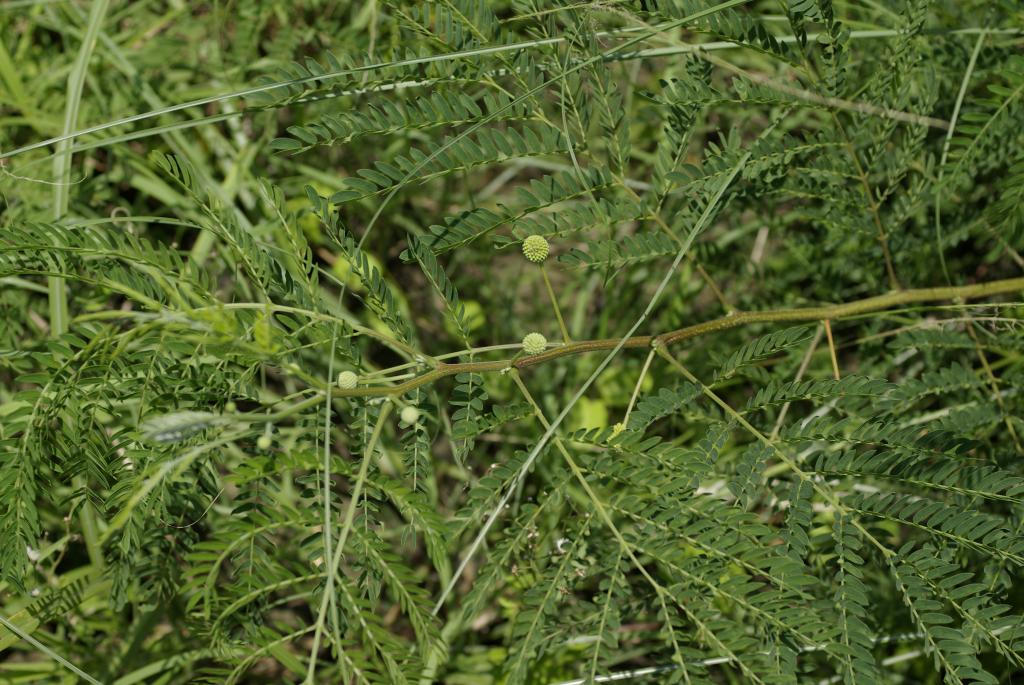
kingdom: Plantae
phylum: Tracheophyta
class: Magnoliopsida
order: Fabales
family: Fabaceae
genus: Leucaena
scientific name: Leucaena leucocephala
